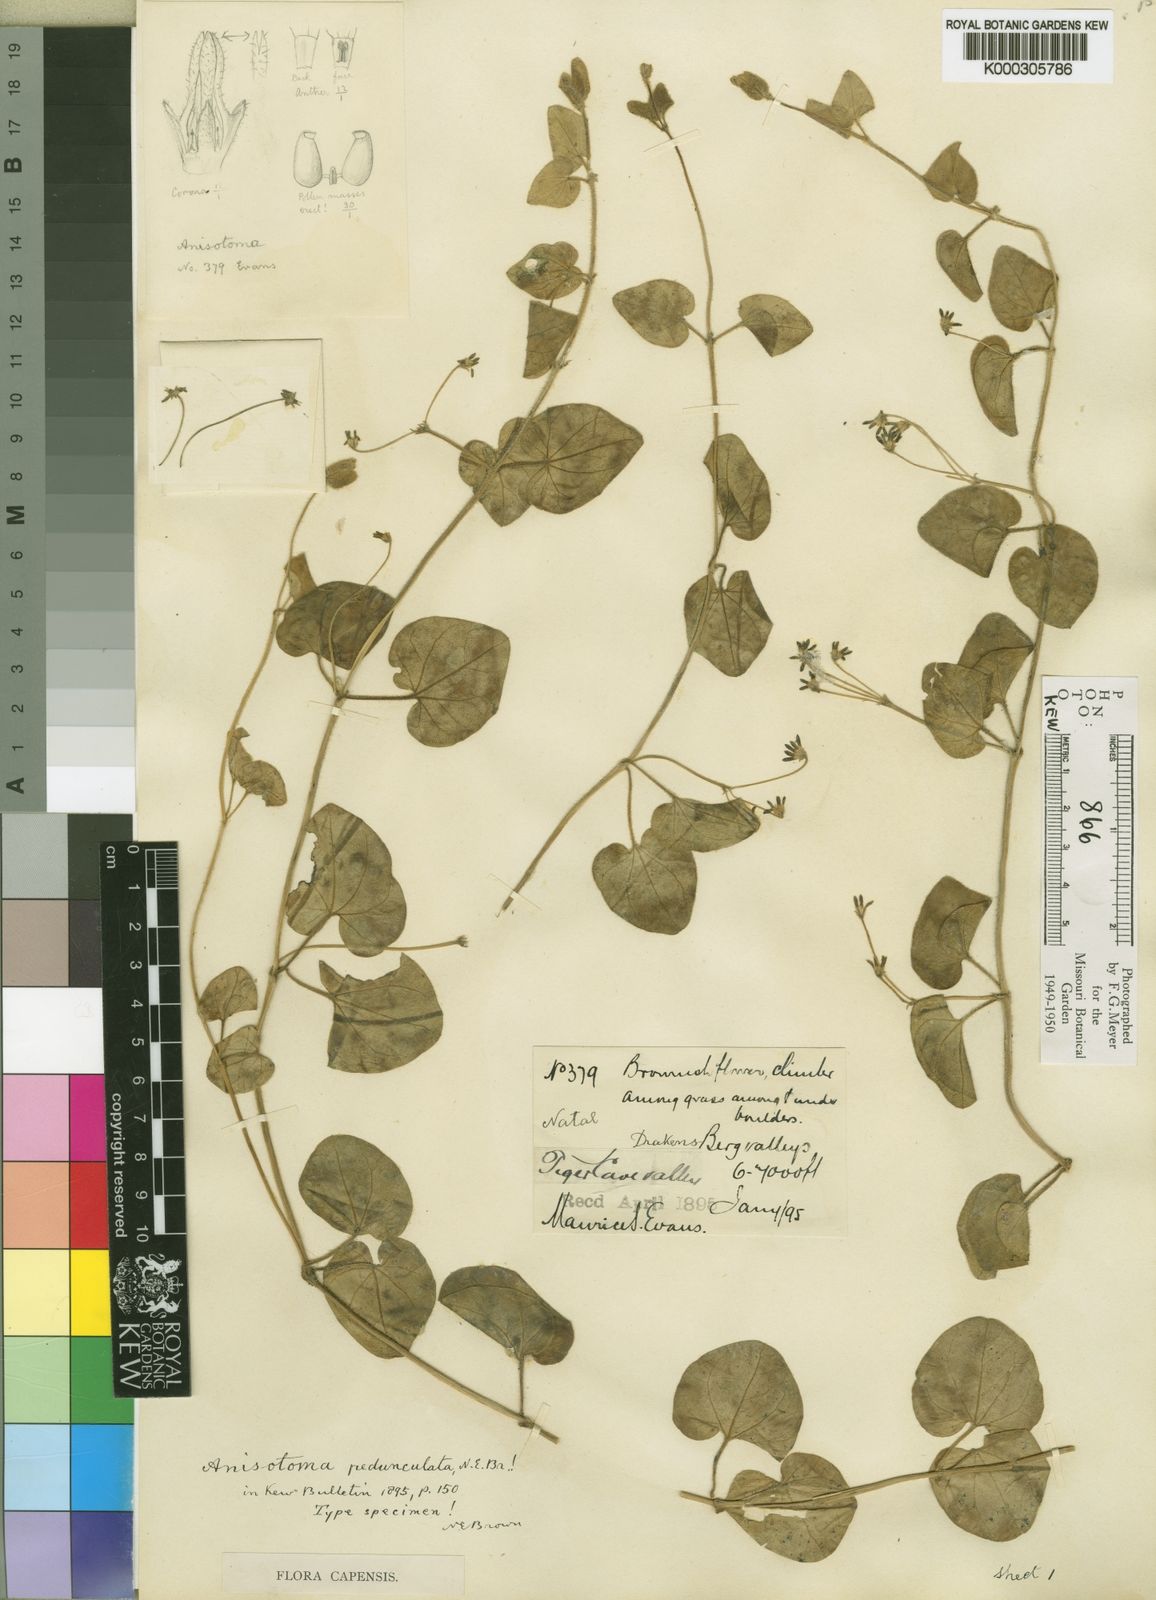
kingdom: Plantae
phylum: Tracheophyta
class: Magnoliopsida
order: Gentianales
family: Apocynaceae
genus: Anisotoma
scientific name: Anisotoma pedunculata
